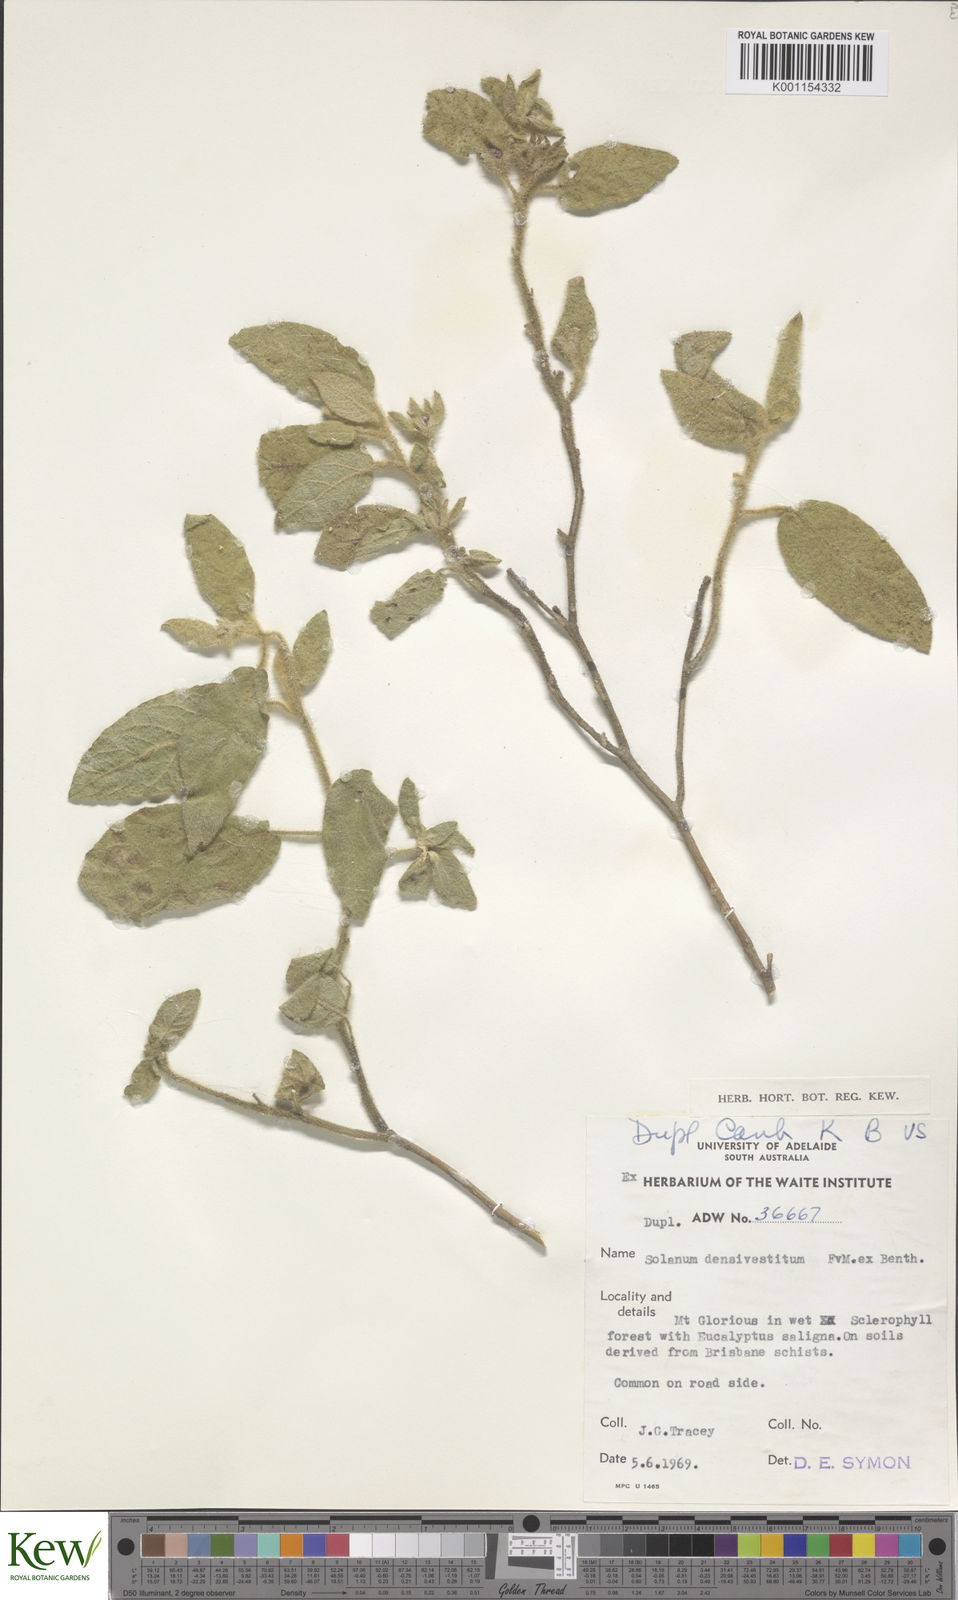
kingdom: Plantae
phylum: Tracheophyta
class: Magnoliopsida
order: Solanales
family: Solanaceae
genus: Solanum
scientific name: Solanum densevestitum
